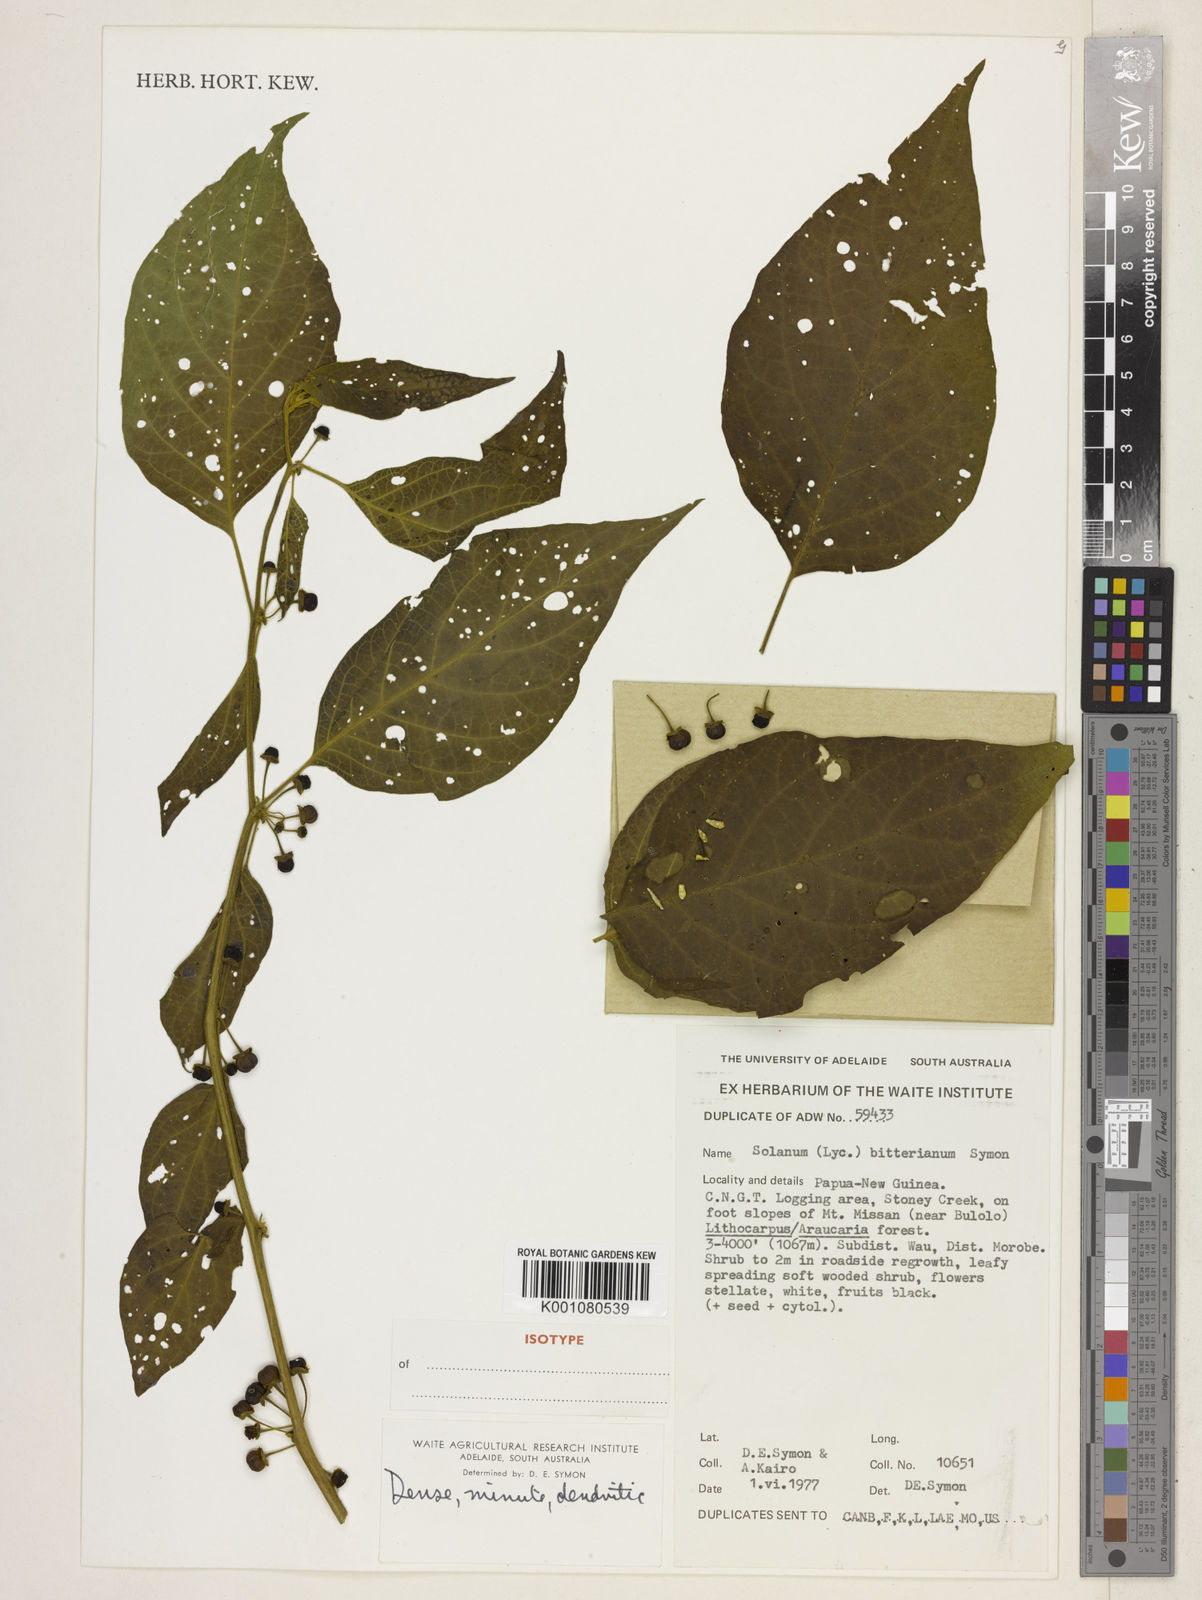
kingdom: Plantae
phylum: Tracheophyta
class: Magnoliopsida
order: Solanales
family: Solanaceae
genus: Lycianthes
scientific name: Lycianthes bitteriana
